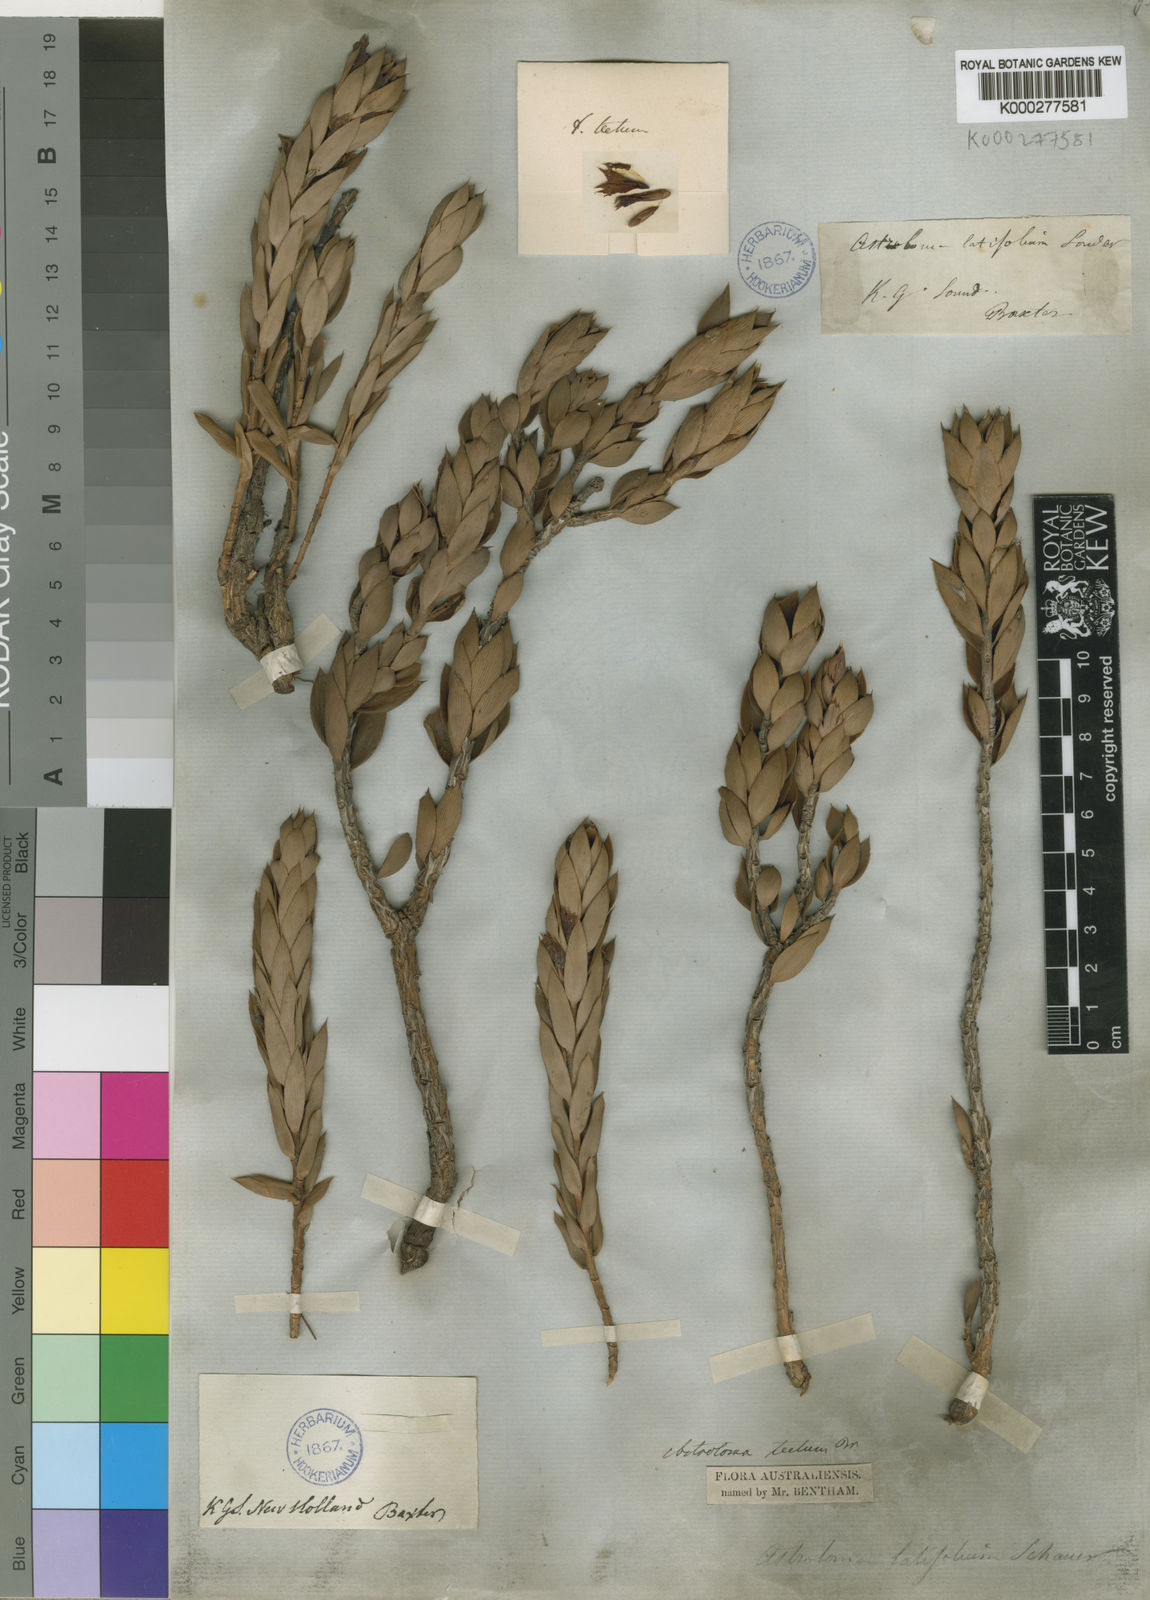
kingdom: Plantae
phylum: Tracheophyta
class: Magnoliopsida
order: Ericales
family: Ericaceae
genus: Styphelia
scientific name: Styphelia tecta
